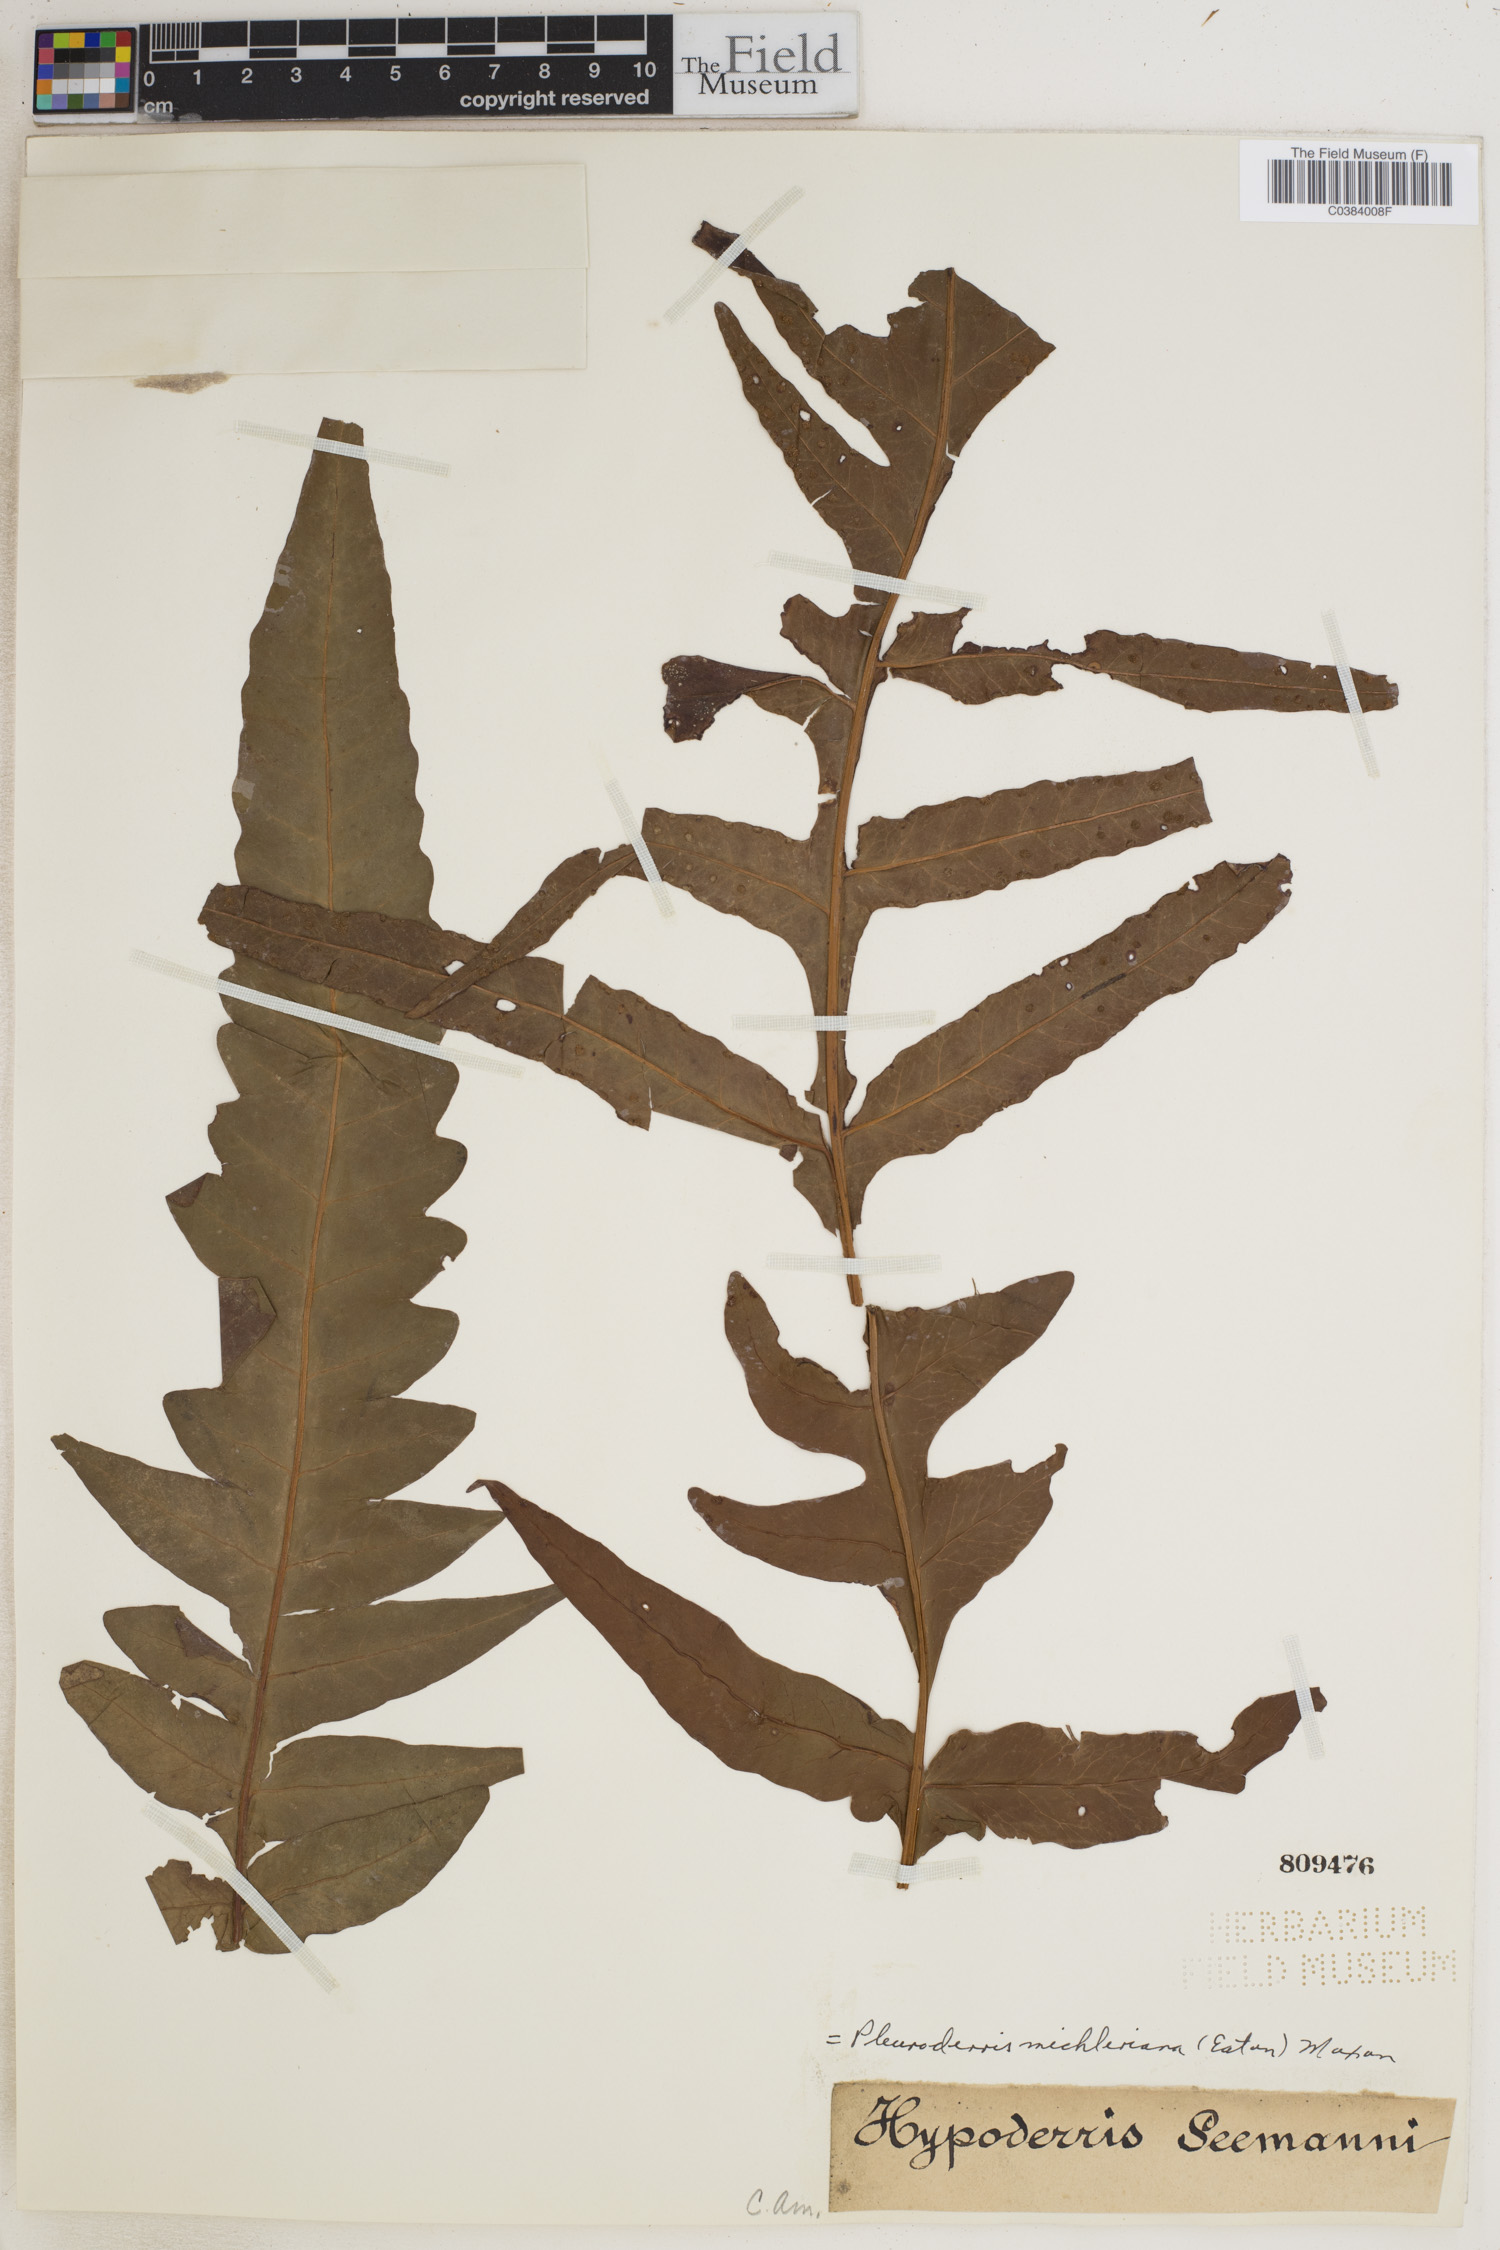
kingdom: Plantae
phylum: Tracheophyta
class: Polypodiopsida
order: Polypodiales
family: Tectariaceae
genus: Tectaria
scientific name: Tectaria michleriana
